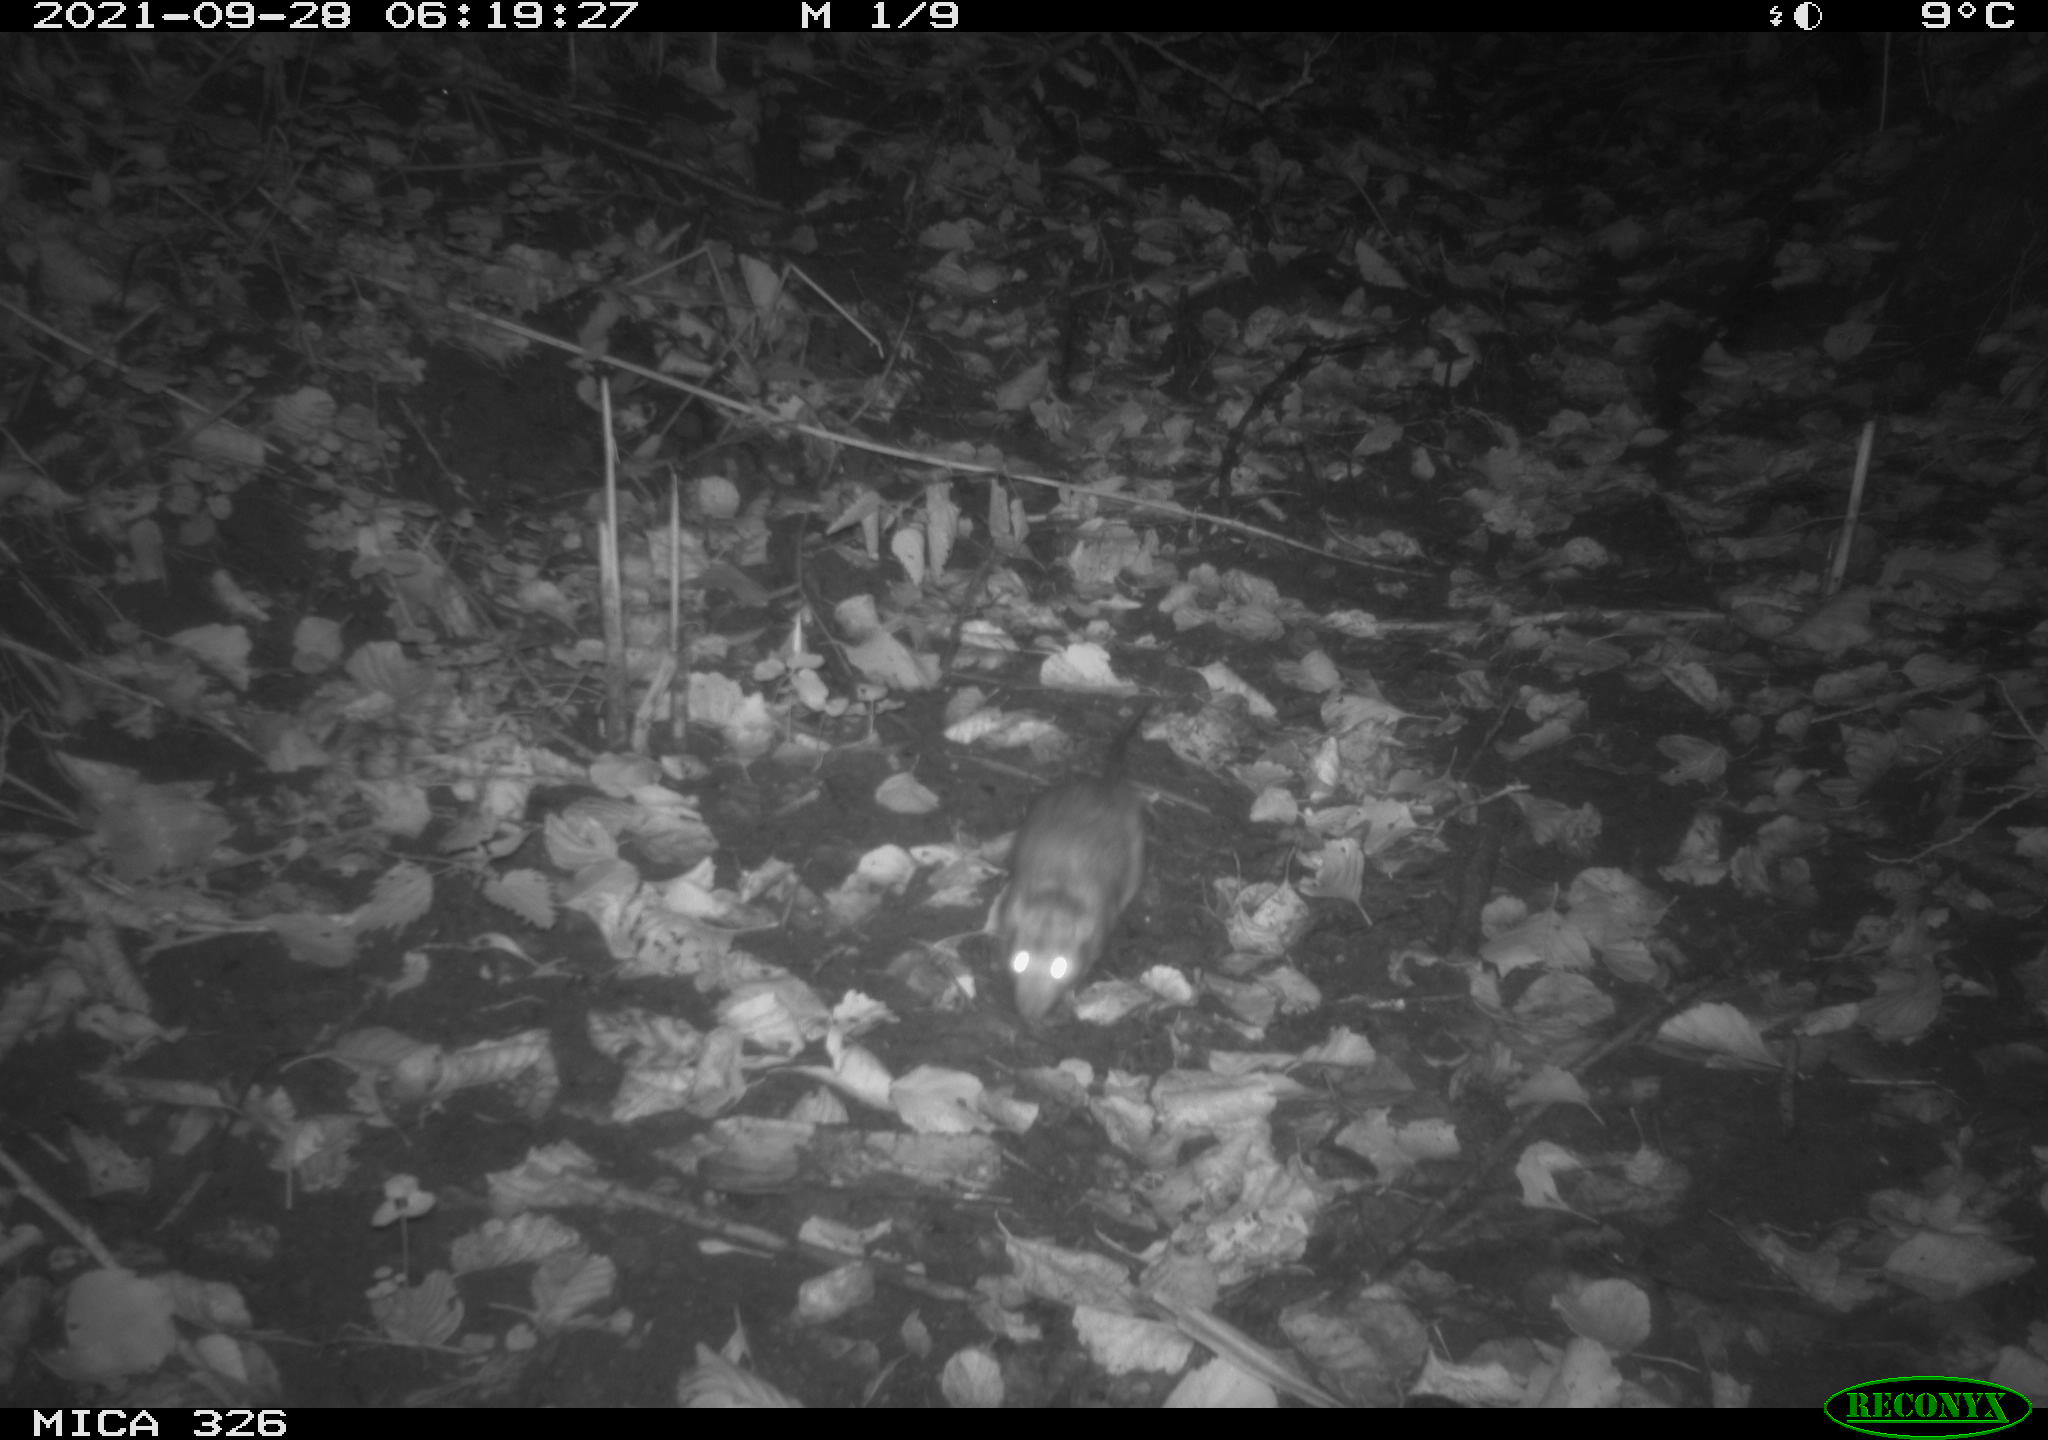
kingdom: Animalia
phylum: Chordata
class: Mammalia
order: Rodentia
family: Muridae
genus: Rattus
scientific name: Rattus norvegicus
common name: Brown rat
